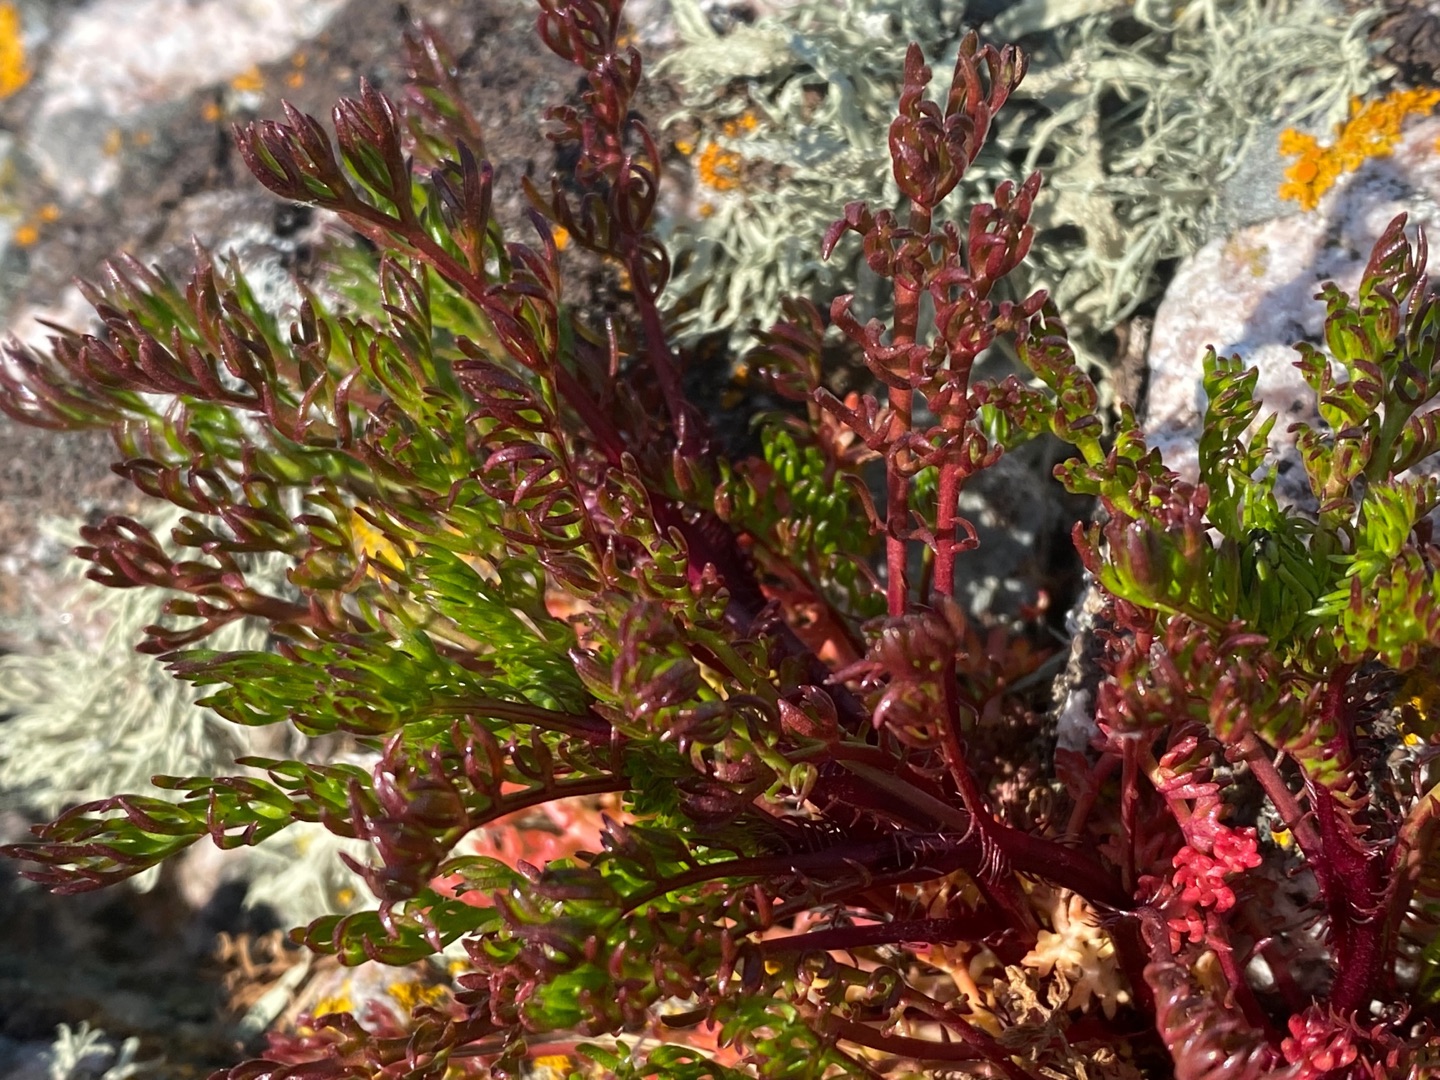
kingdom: Plantae
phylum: Tracheophyta
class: Magnoliopsida
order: Asterales
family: Asteraceae
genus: Tripleurospermum
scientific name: Tripleurospermum maritimum
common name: Strand-kamille
